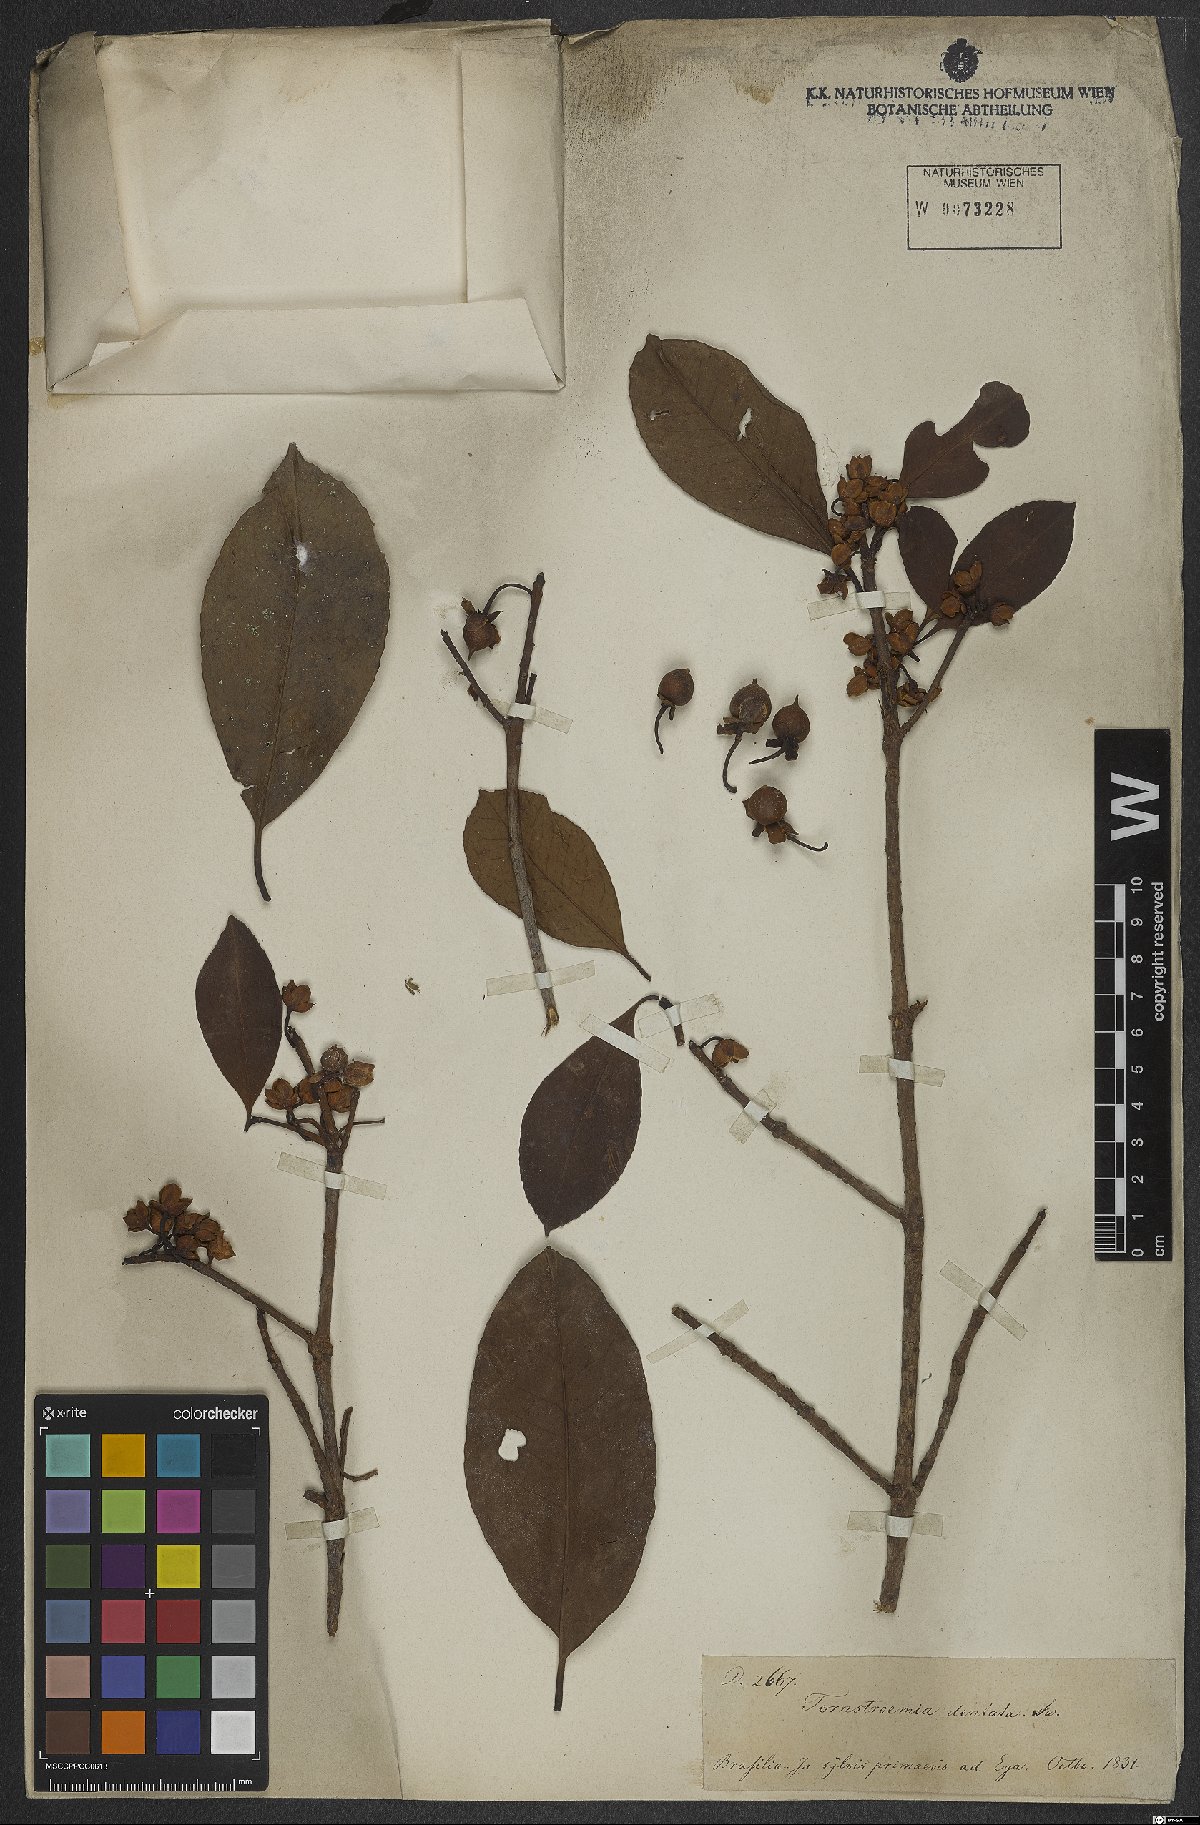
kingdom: Plantae
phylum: Tracheophyta
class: Magnoliopsida
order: Ericales
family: Pentaphylacaceae
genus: Ternstroemia
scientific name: Ternstroemia dentata
